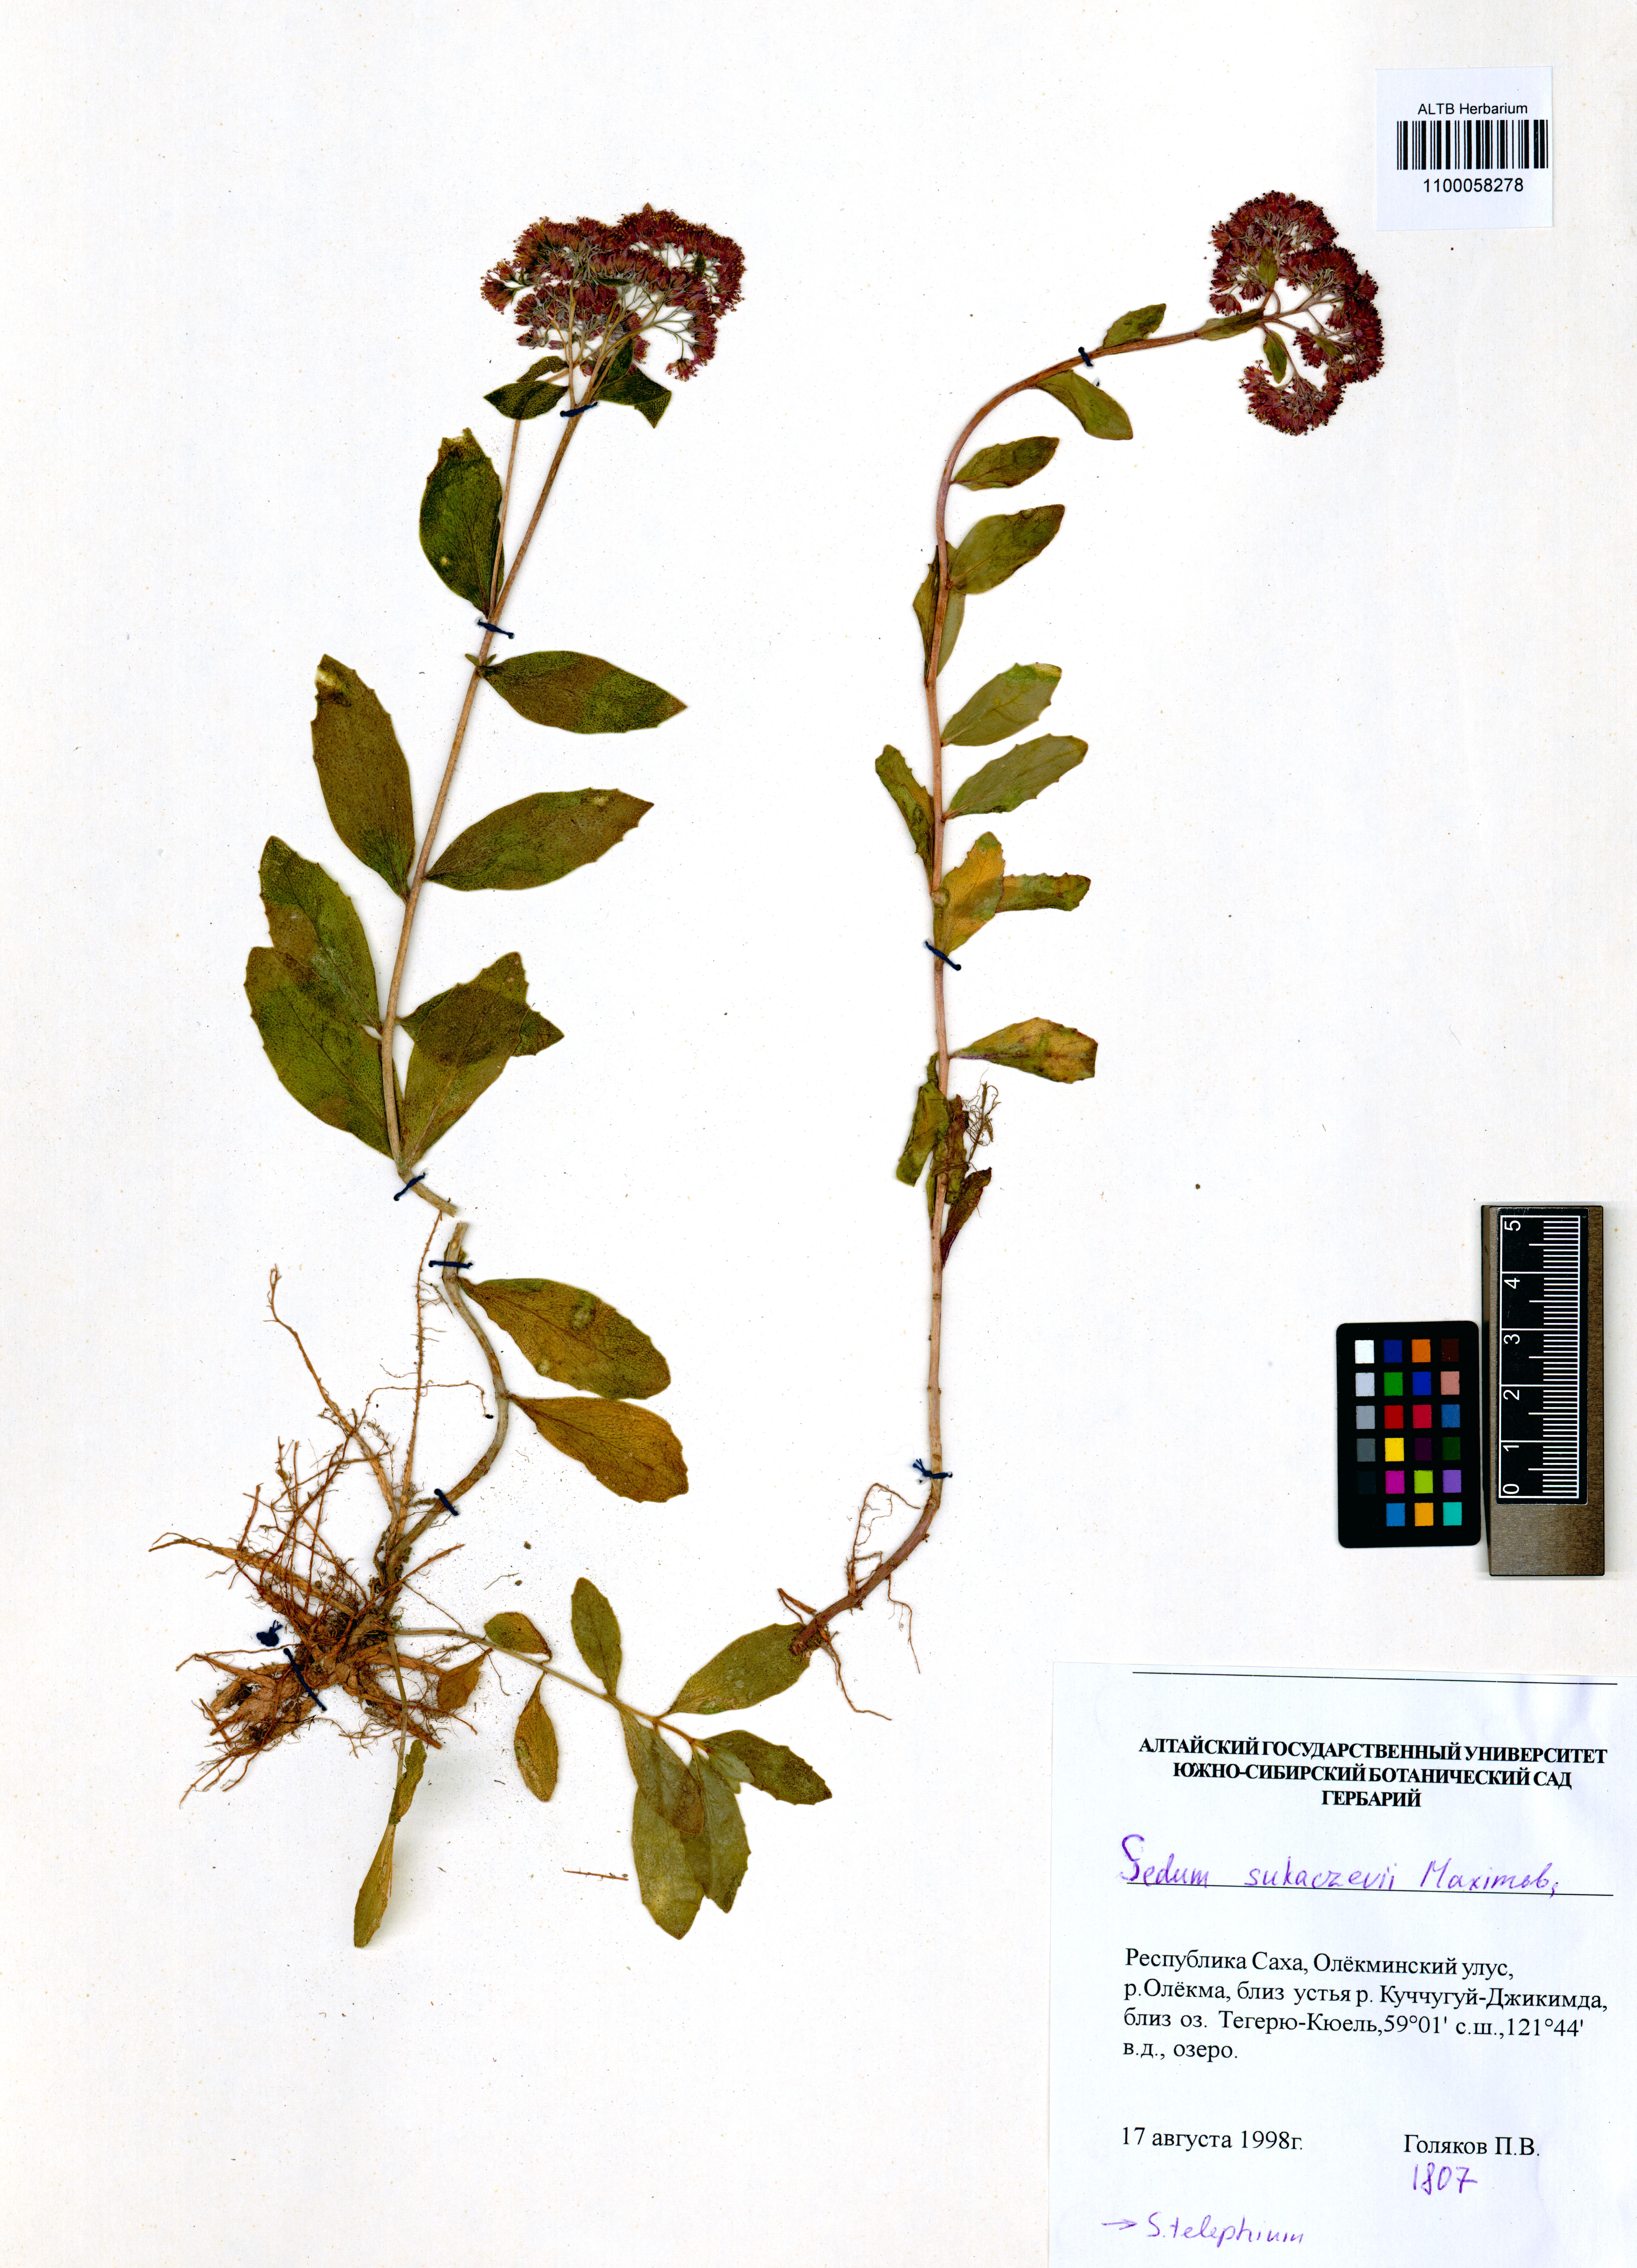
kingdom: Plantae
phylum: Tracheophyta
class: Magnoliopsida
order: Saxifragales
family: Crassulaceae
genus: Hylotelephium
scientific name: Hylotelephium pallescens
